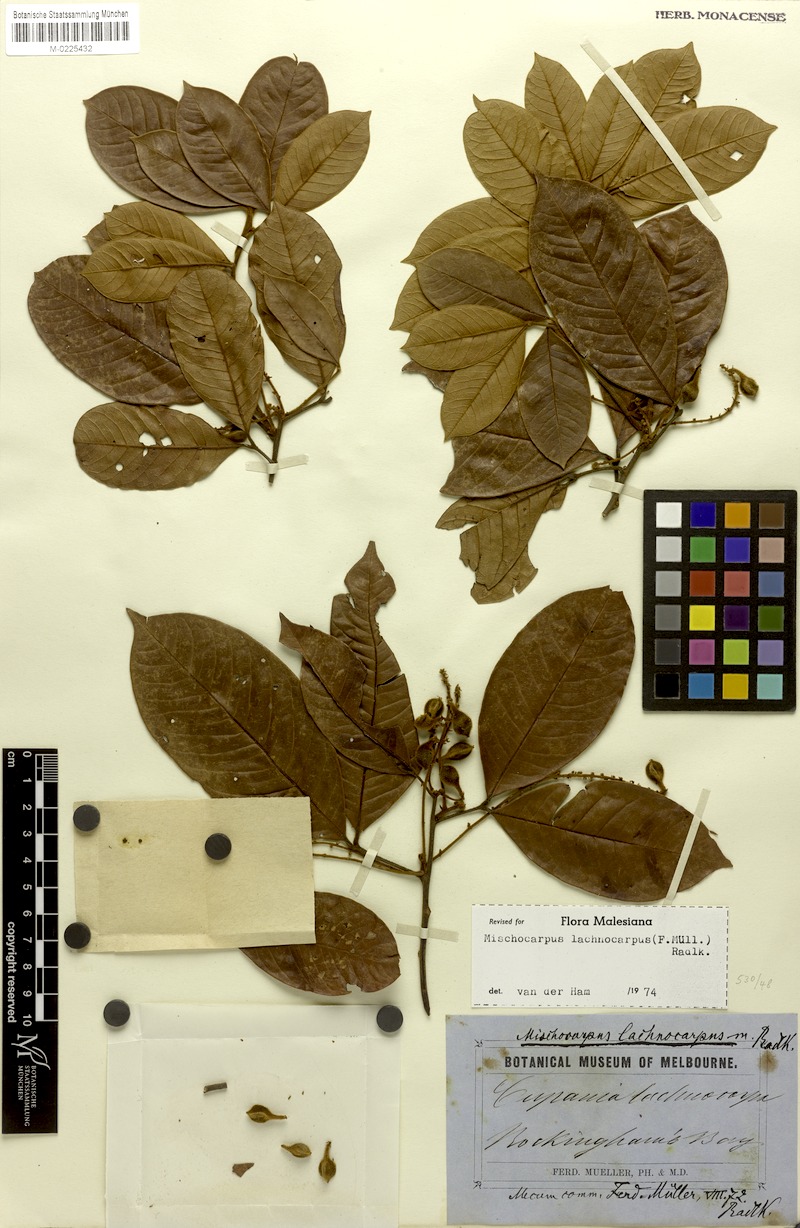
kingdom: Plantae
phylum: Tracheophyta
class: Magnoliopsida
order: Sapindales
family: Sapindaceae
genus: Mischocarpus
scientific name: Mischocarpus lachnocarpus
